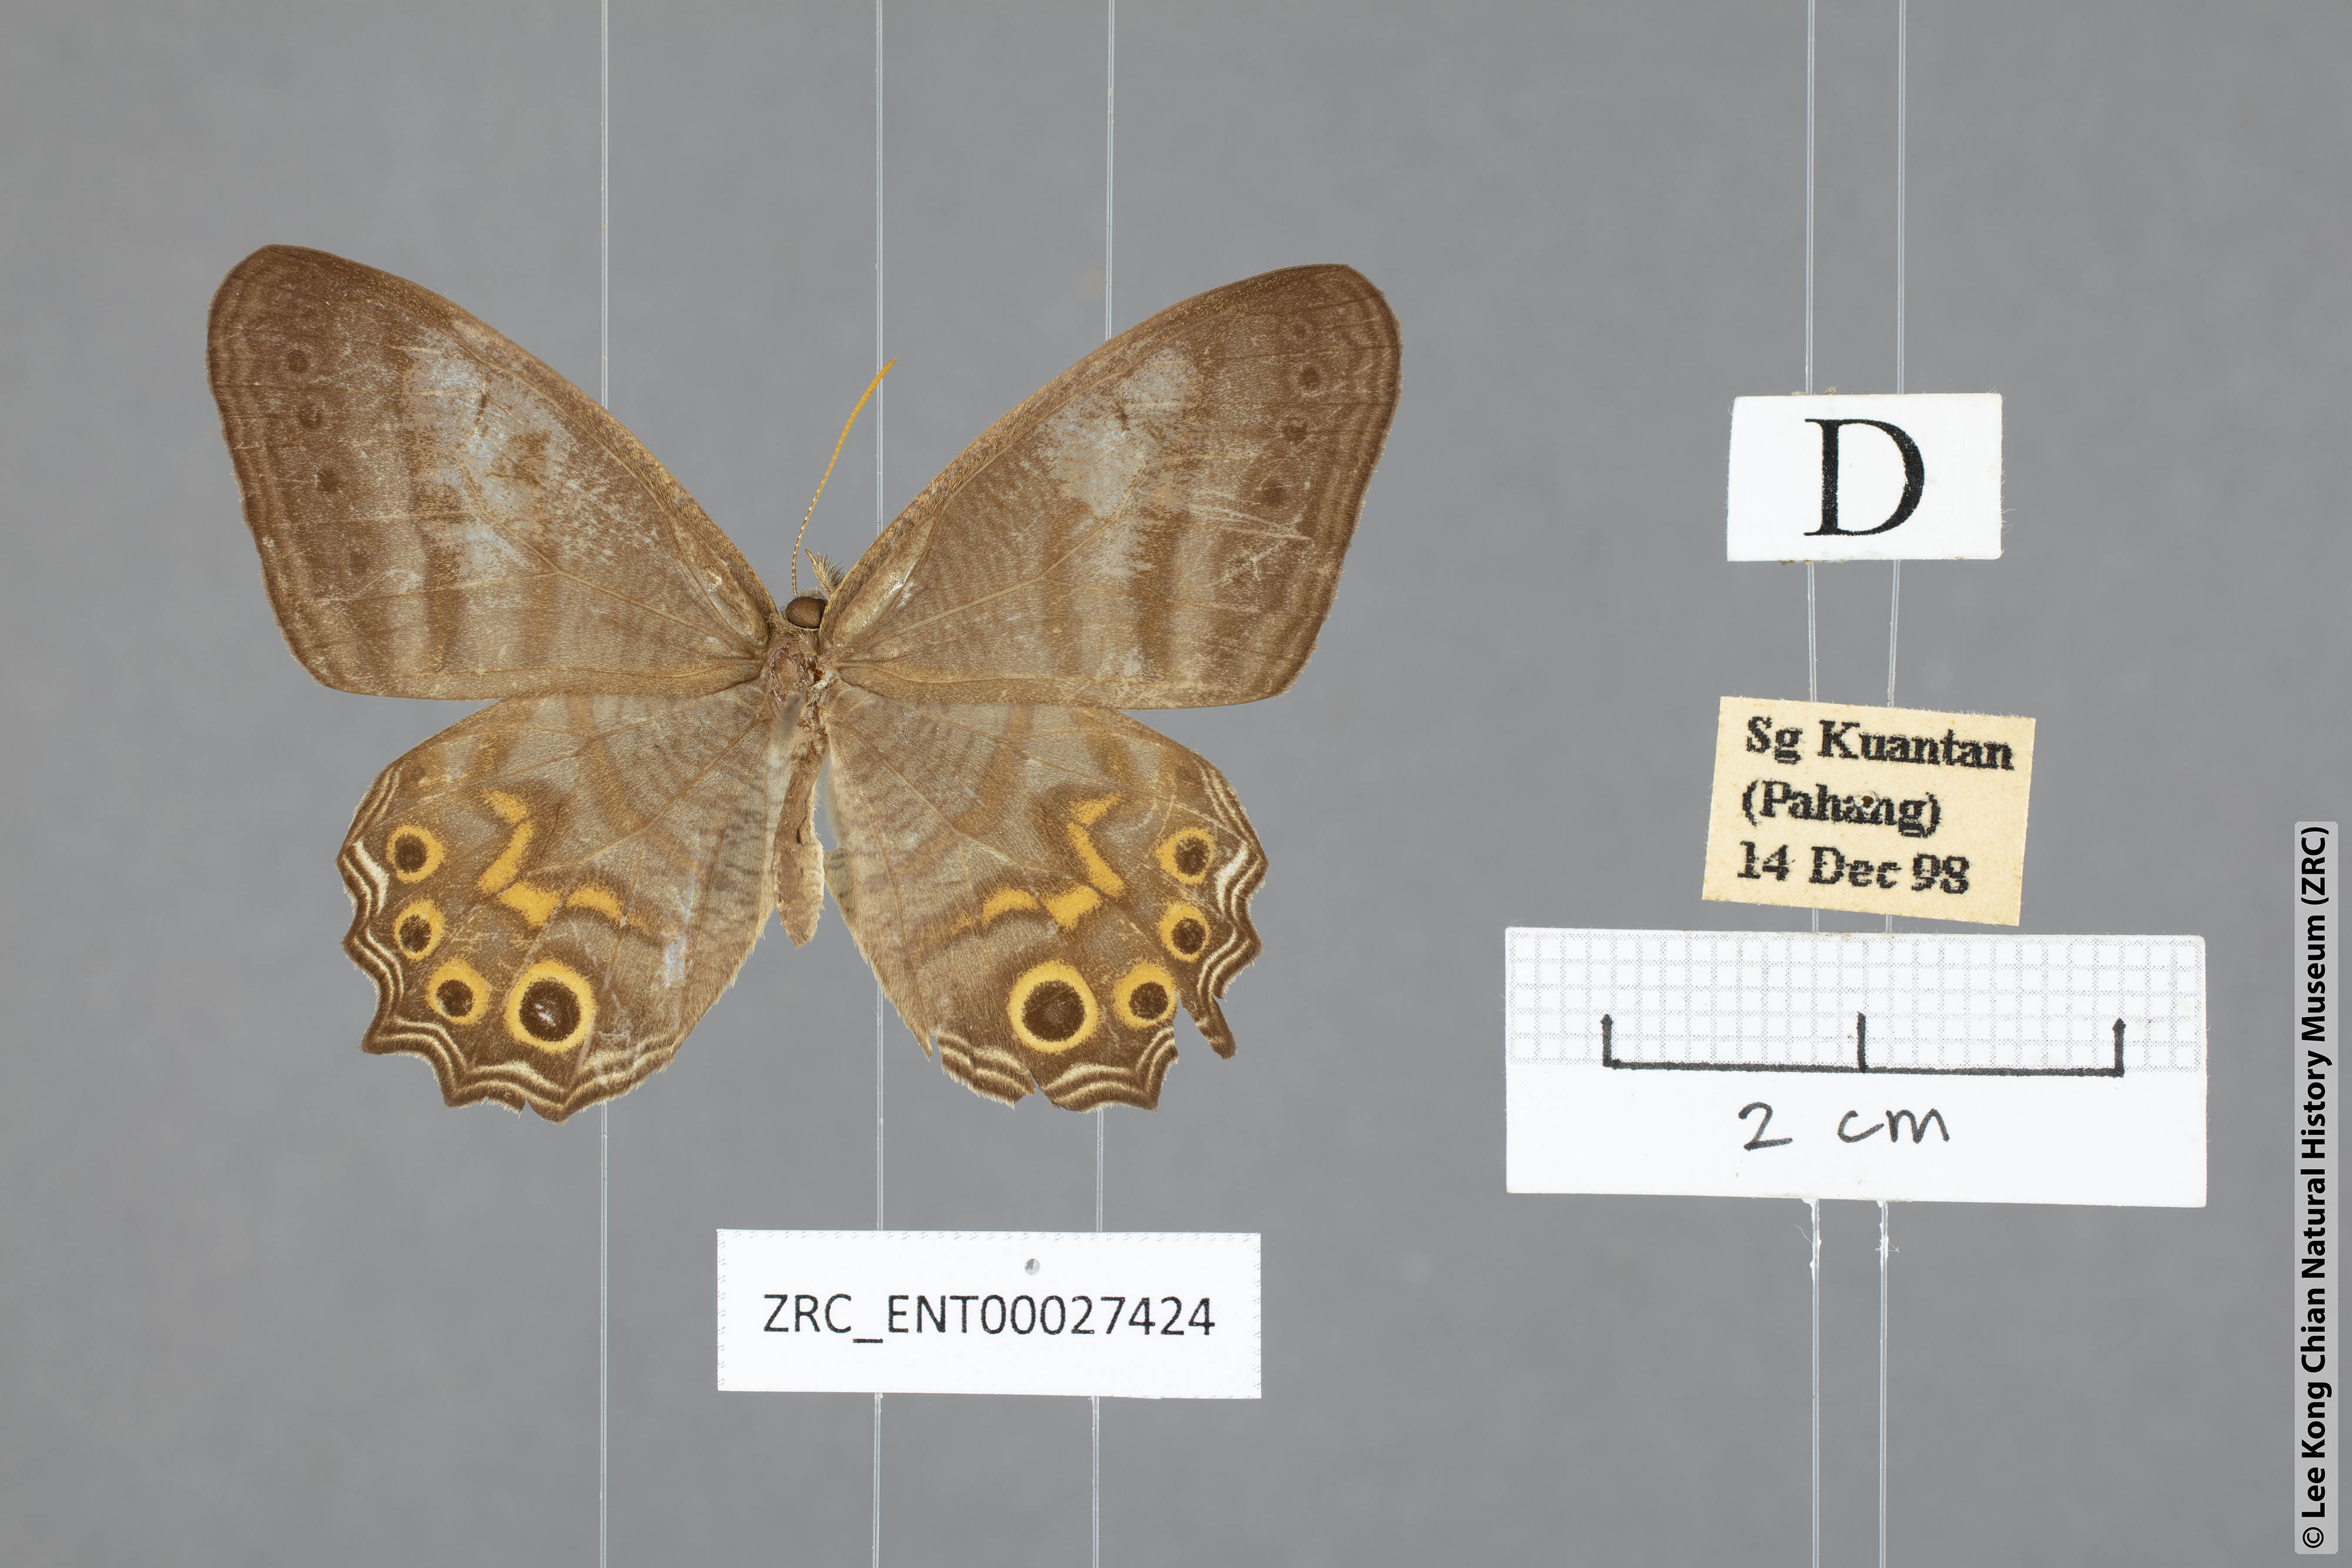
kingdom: Animalia
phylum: Arthropoda
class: Insecta
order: Lepidoptera
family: Nymphalidae
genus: Erites
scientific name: Erites elegans
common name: Elegent cyclops
